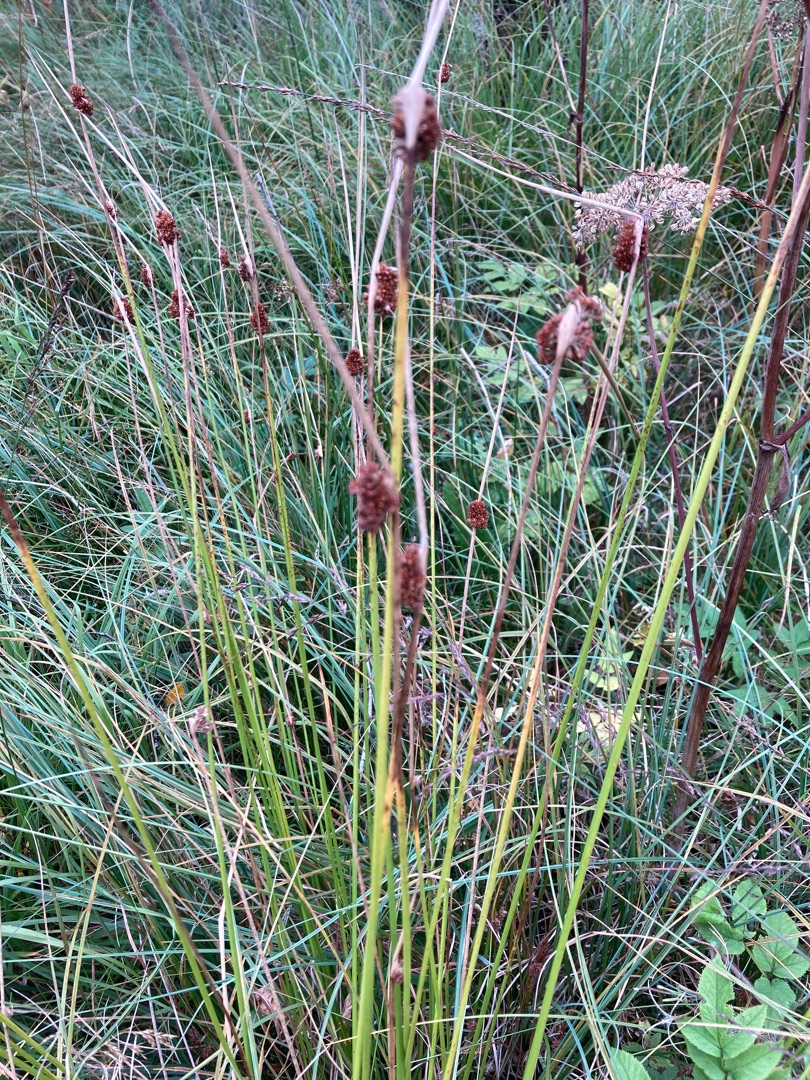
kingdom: Plantae
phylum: Tracheophyta
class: Liliopsida
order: Poales
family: Juncaceae
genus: Juncus
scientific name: Juncus conglomeratus
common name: Knop-siv
